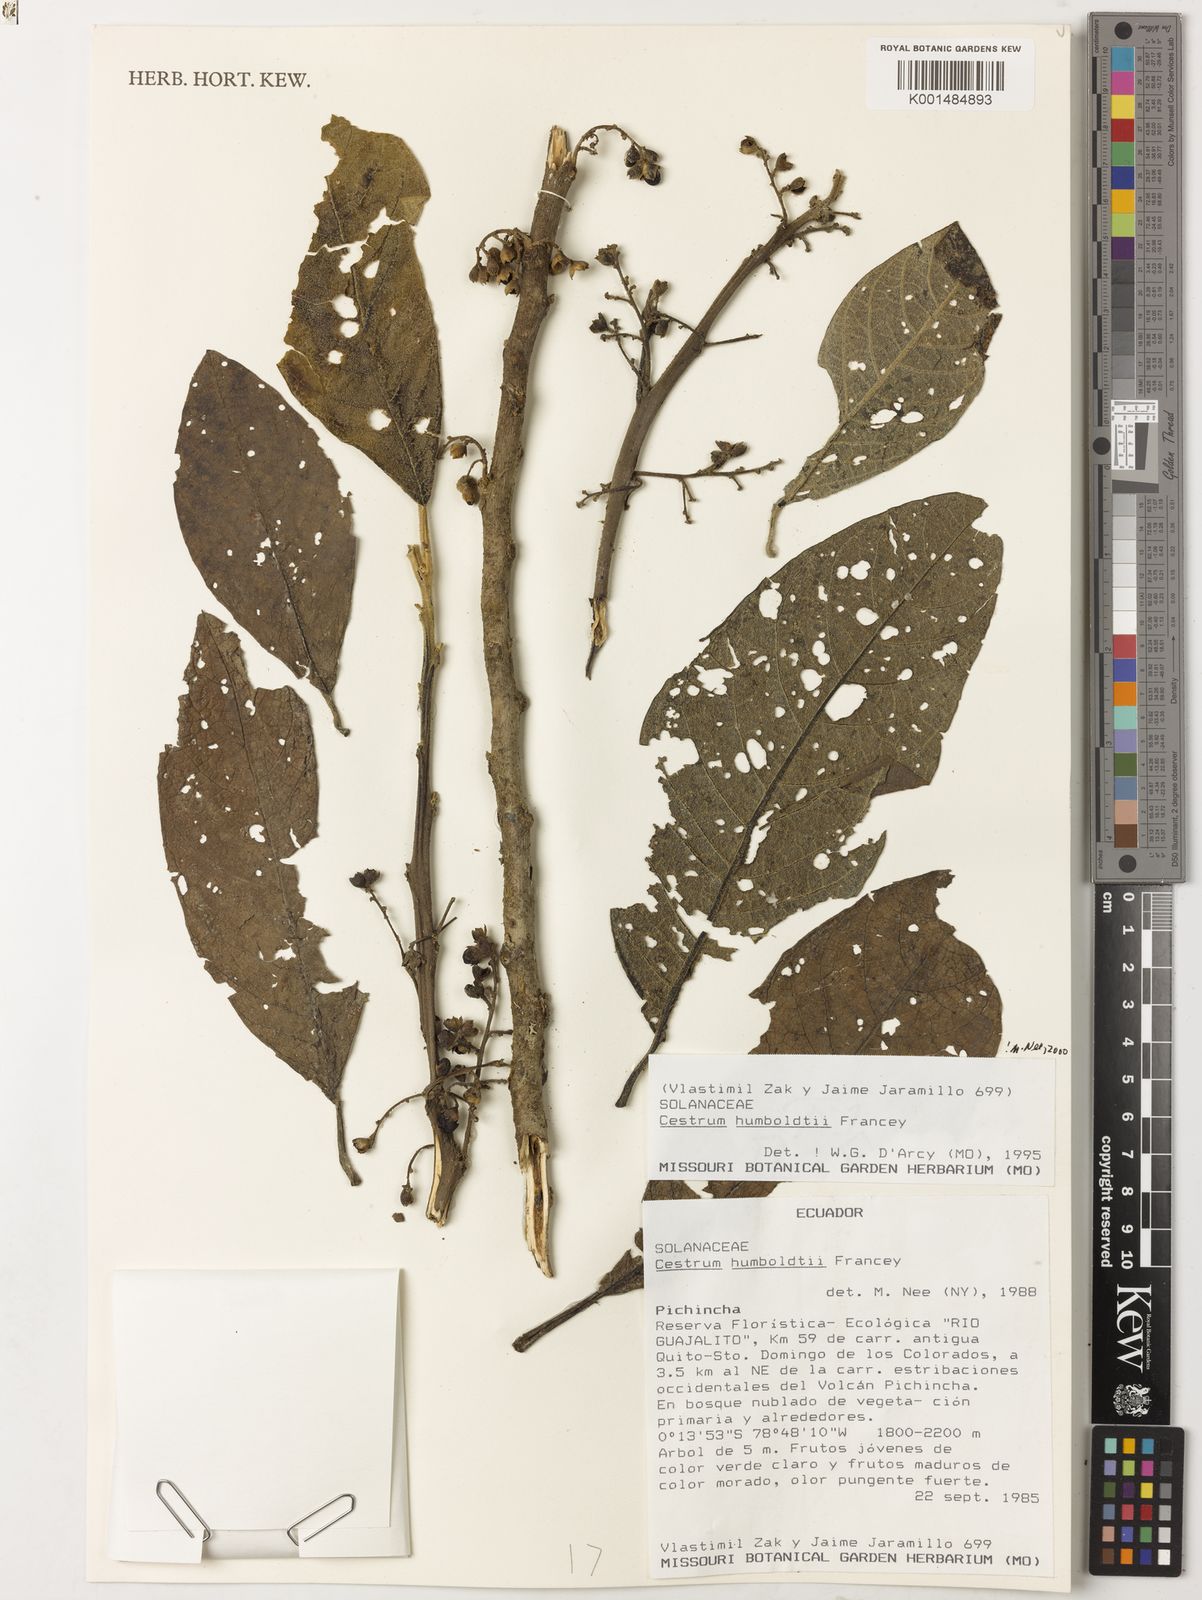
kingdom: Plantae
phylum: Tracheophyta
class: Magnoliopsida
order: Solanales
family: Solanaceae
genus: Cestrum
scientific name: Cestrum humboldtii
